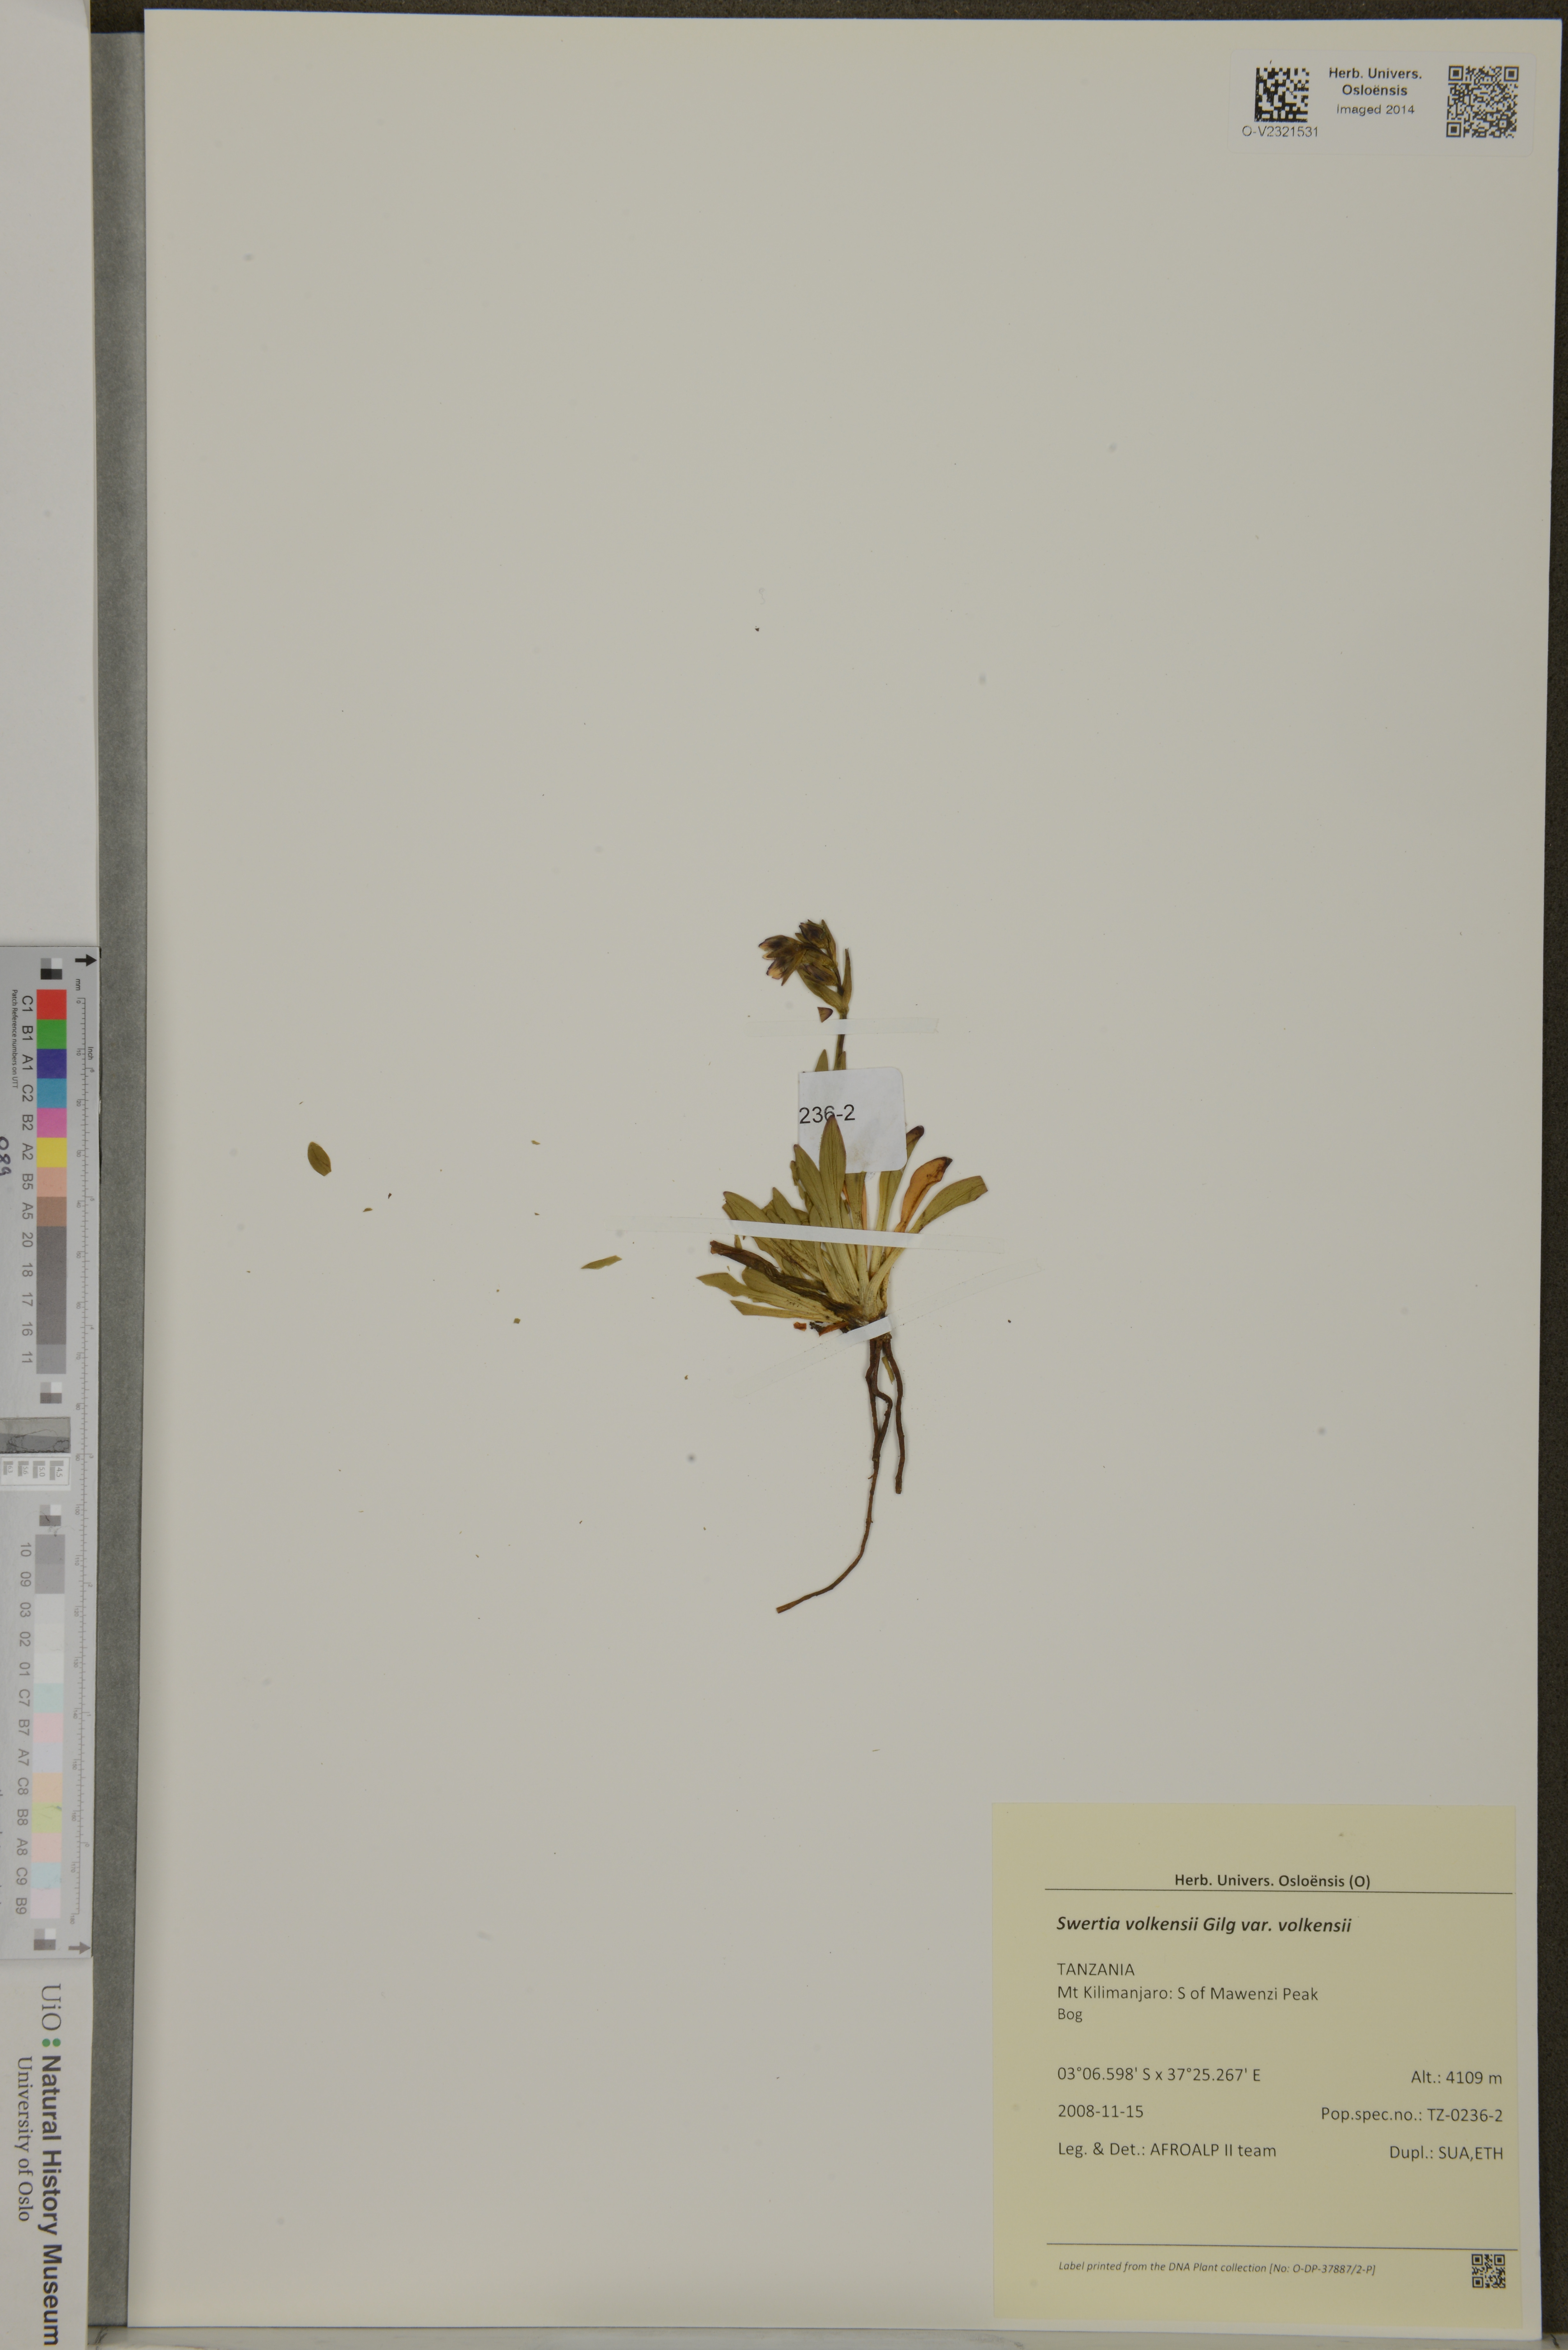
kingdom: Plantae
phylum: Tracheophyta
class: Magnoliopsida
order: Gentianales
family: Gentianaceae
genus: Swertia
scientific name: Swertia volkensii
